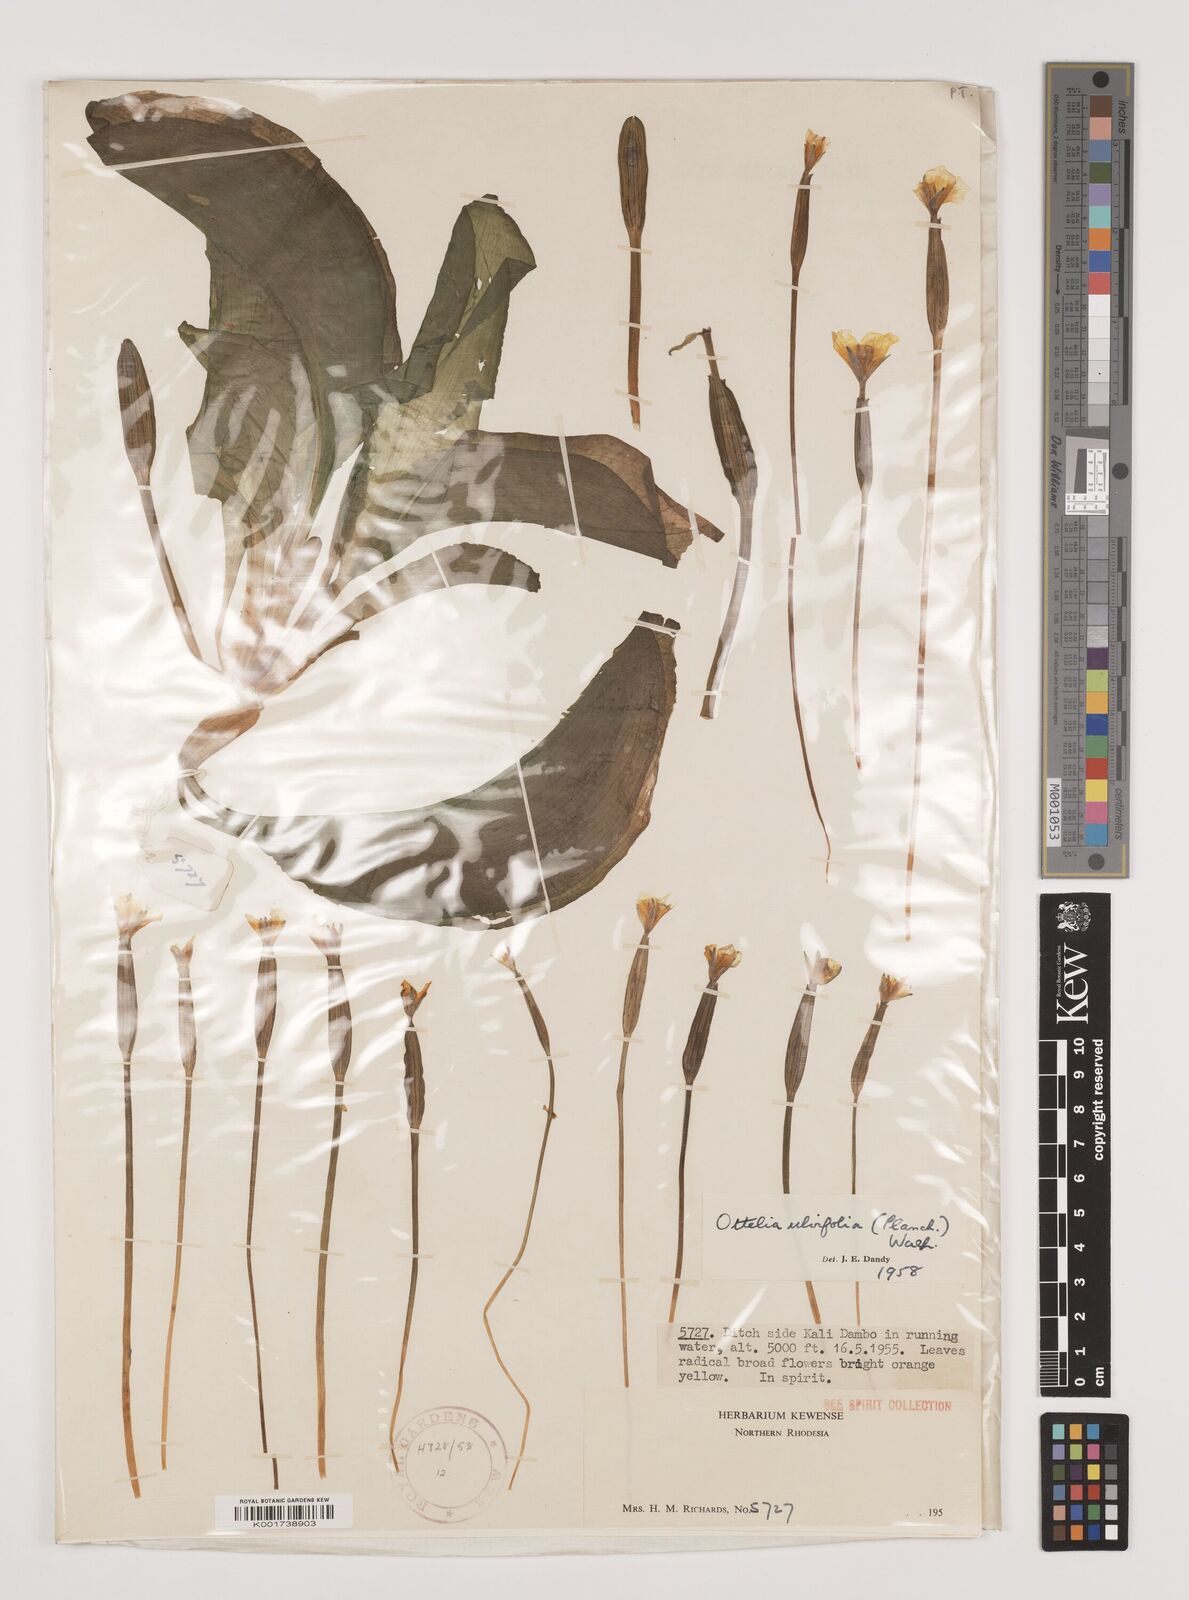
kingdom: Plantae
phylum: Tracheophyta
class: Liliopsida
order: Alismatales
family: Hydrocharitaceae
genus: Ottelia
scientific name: Ottelia ulvifolia
